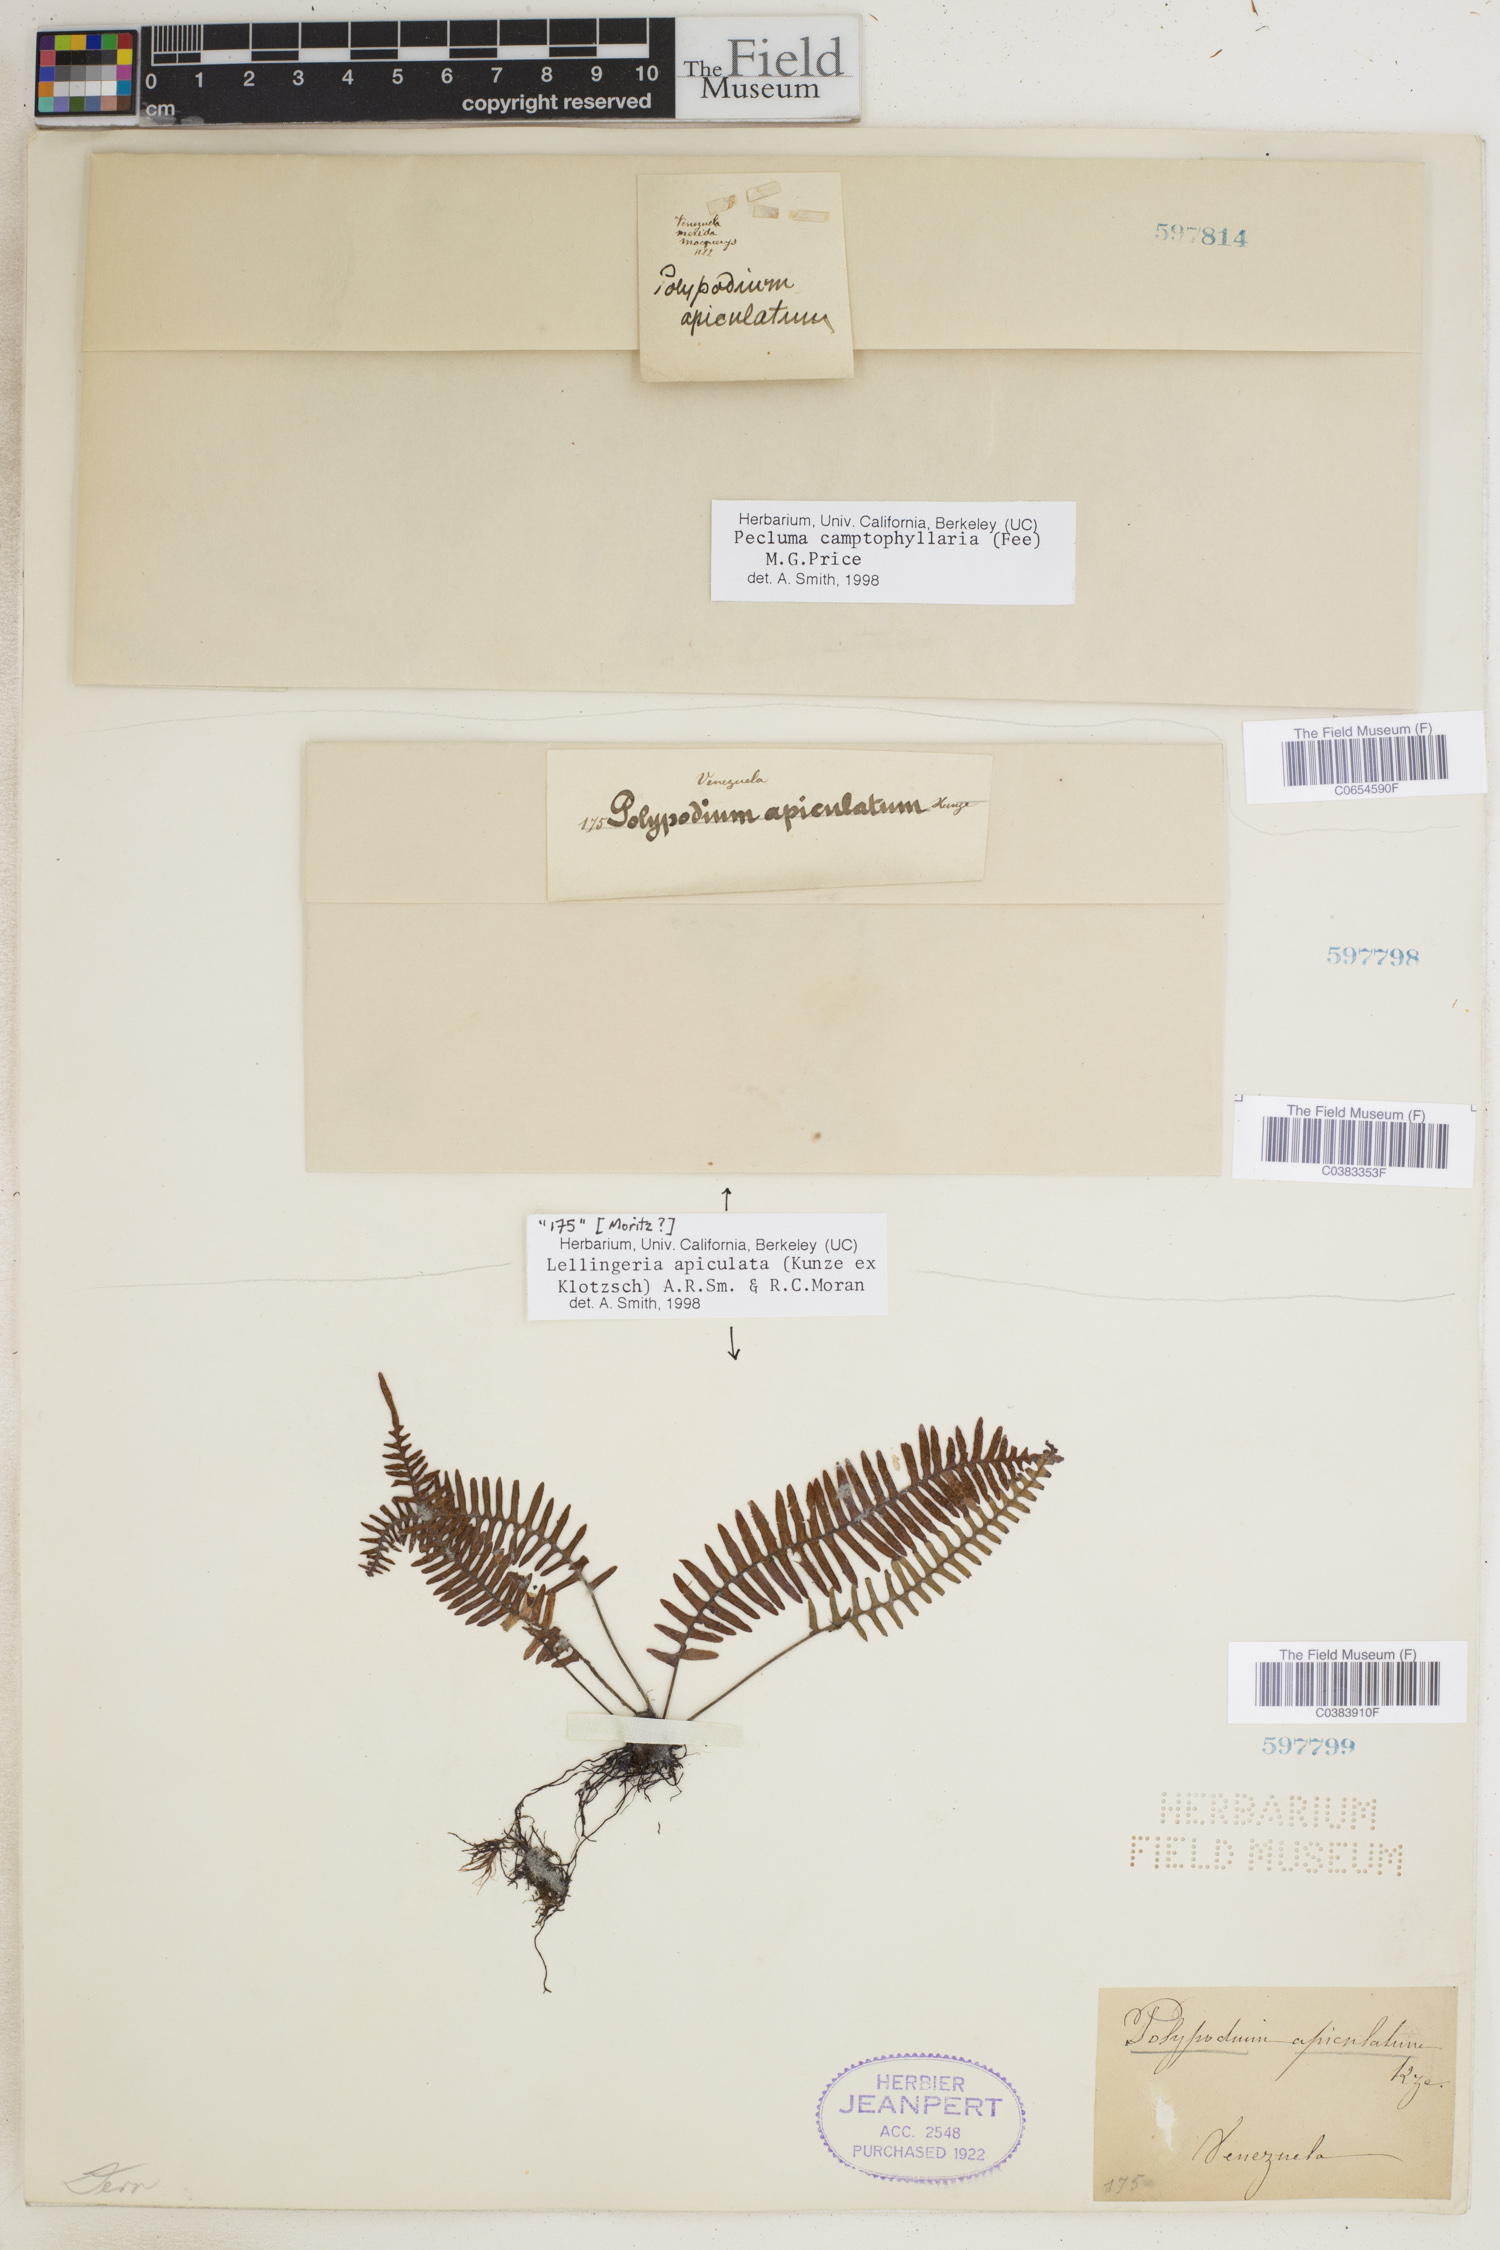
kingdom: Plantae
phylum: Tracheophyta
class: Polypodiopsida
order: Polypodiales
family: Polypodiaceae
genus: Lellingeria
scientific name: Lellingeria apiculata
